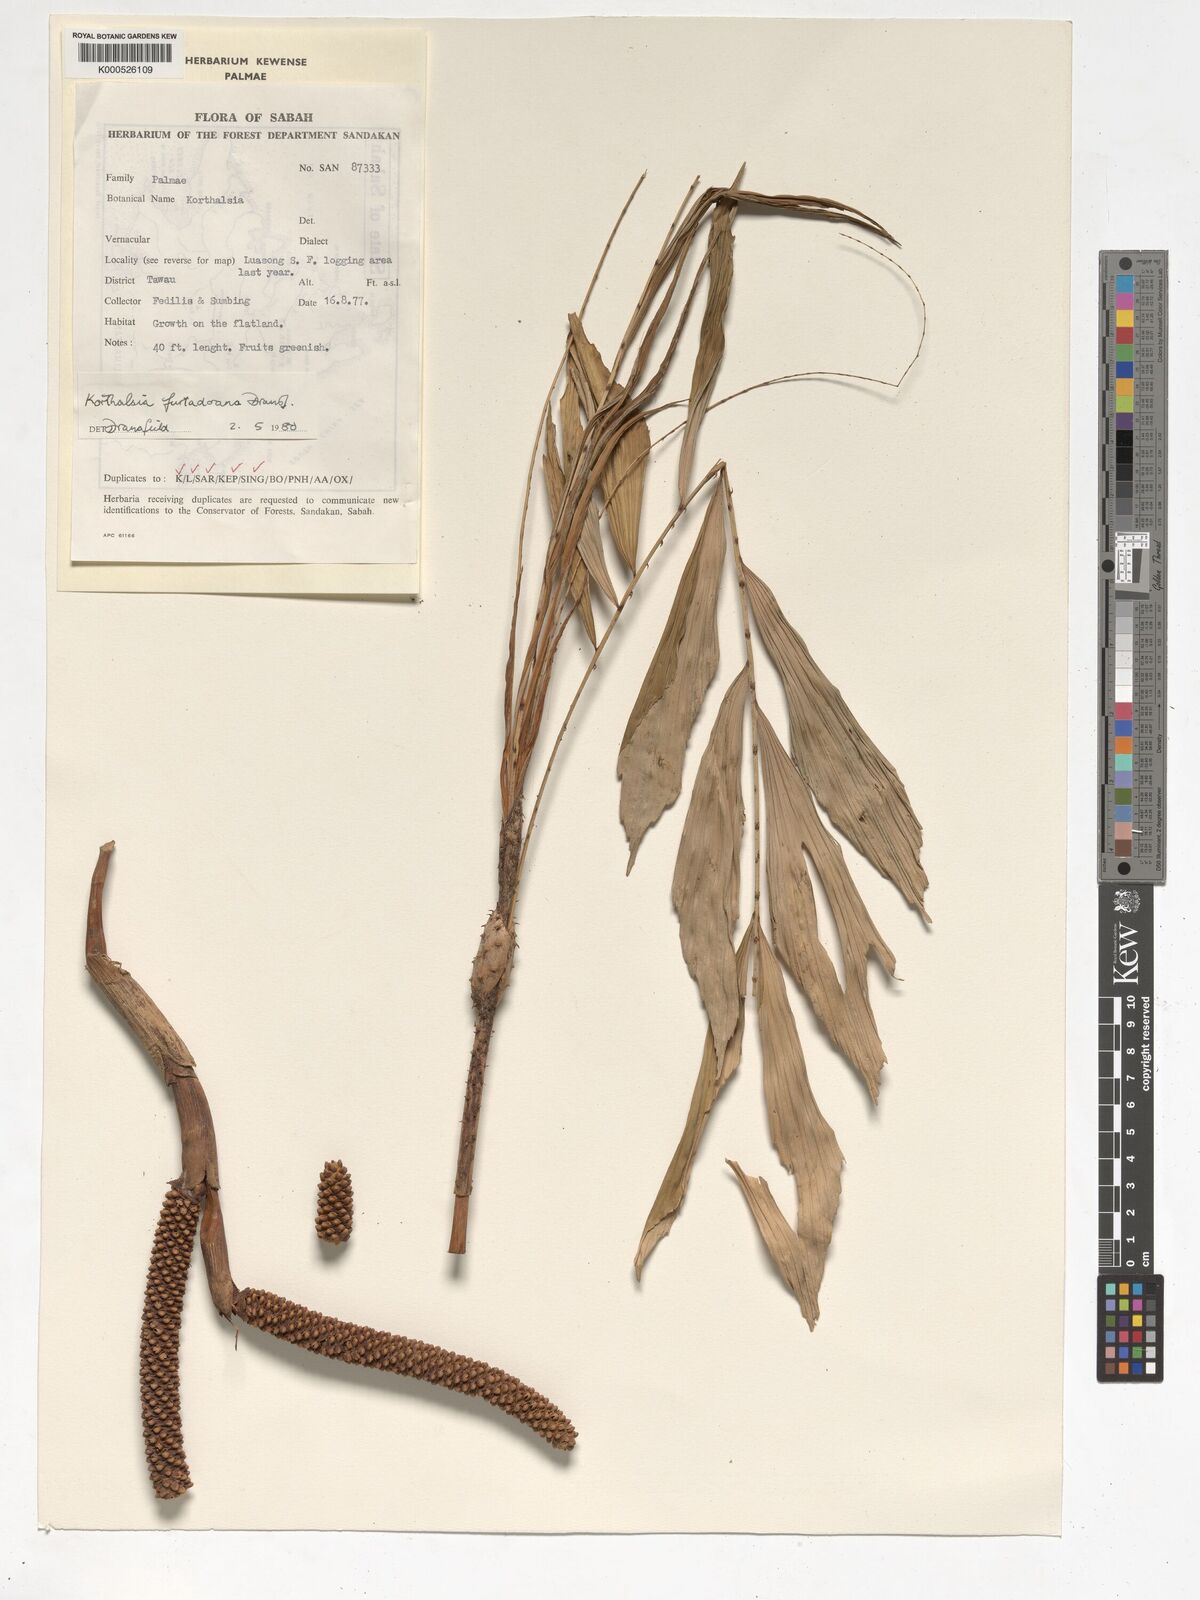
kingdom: Plantae
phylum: Tracheophyta
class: Liliopsida
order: Arecales
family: Arecaceae
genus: Korthalsia
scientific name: Korthalsia furtadoana
